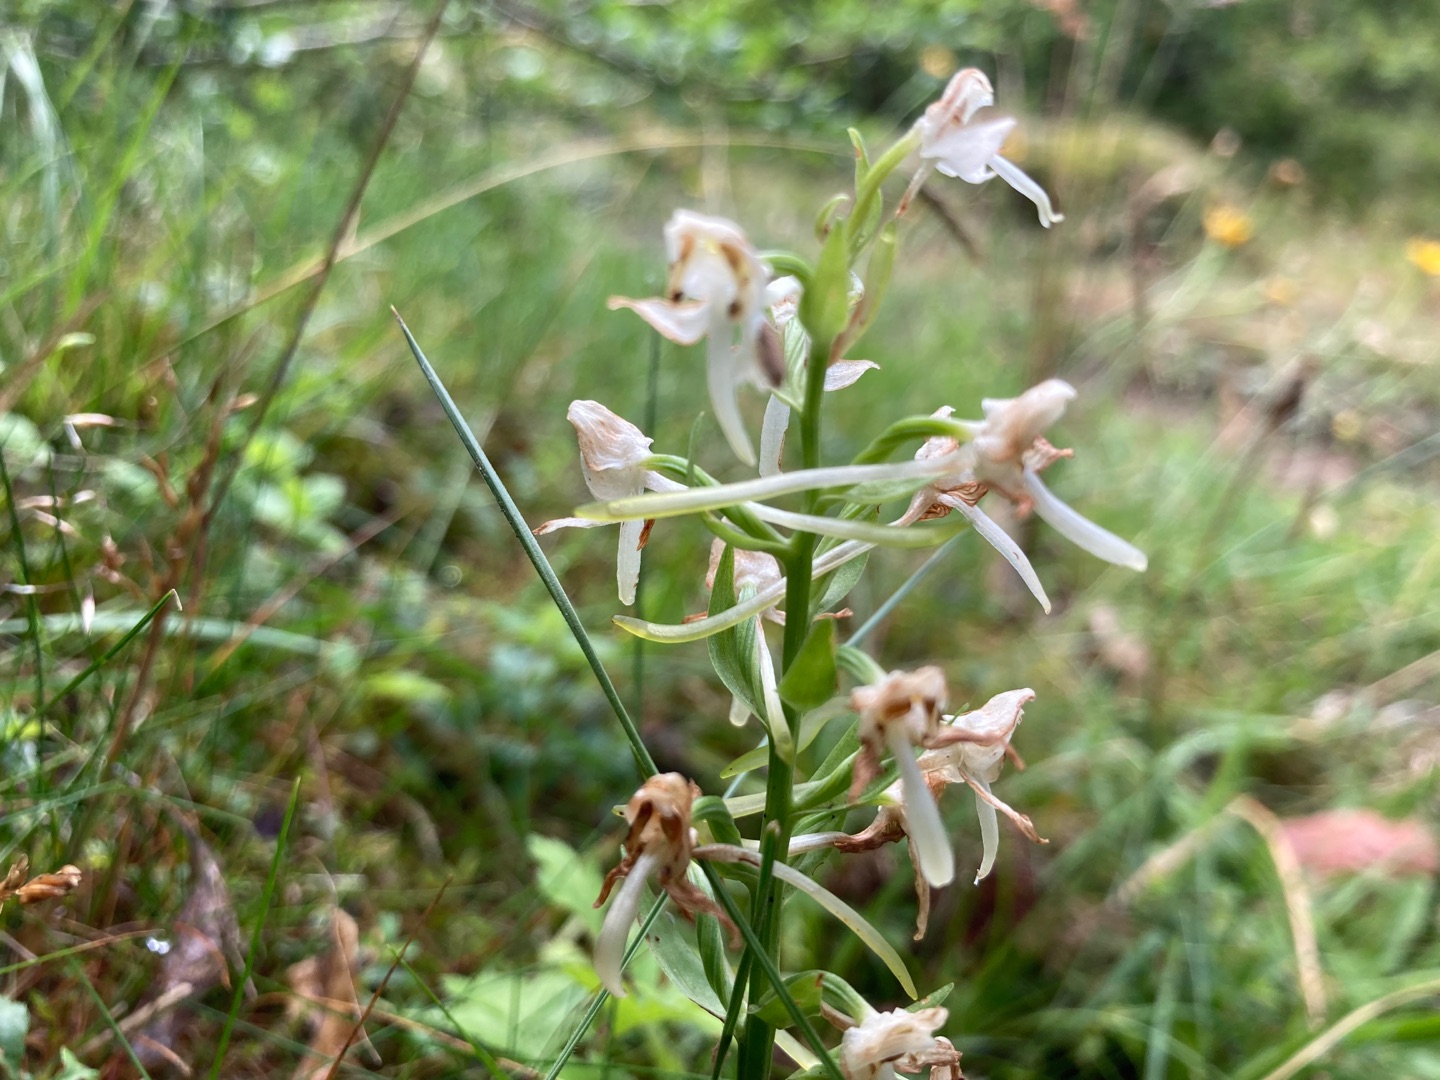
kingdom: Plantae
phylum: Tracheophyta
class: Liliopsida
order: Asparagales
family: Orchidaceae
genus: Platanthera
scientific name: Platanthera chlorantha
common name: Skov-gøgelilje
